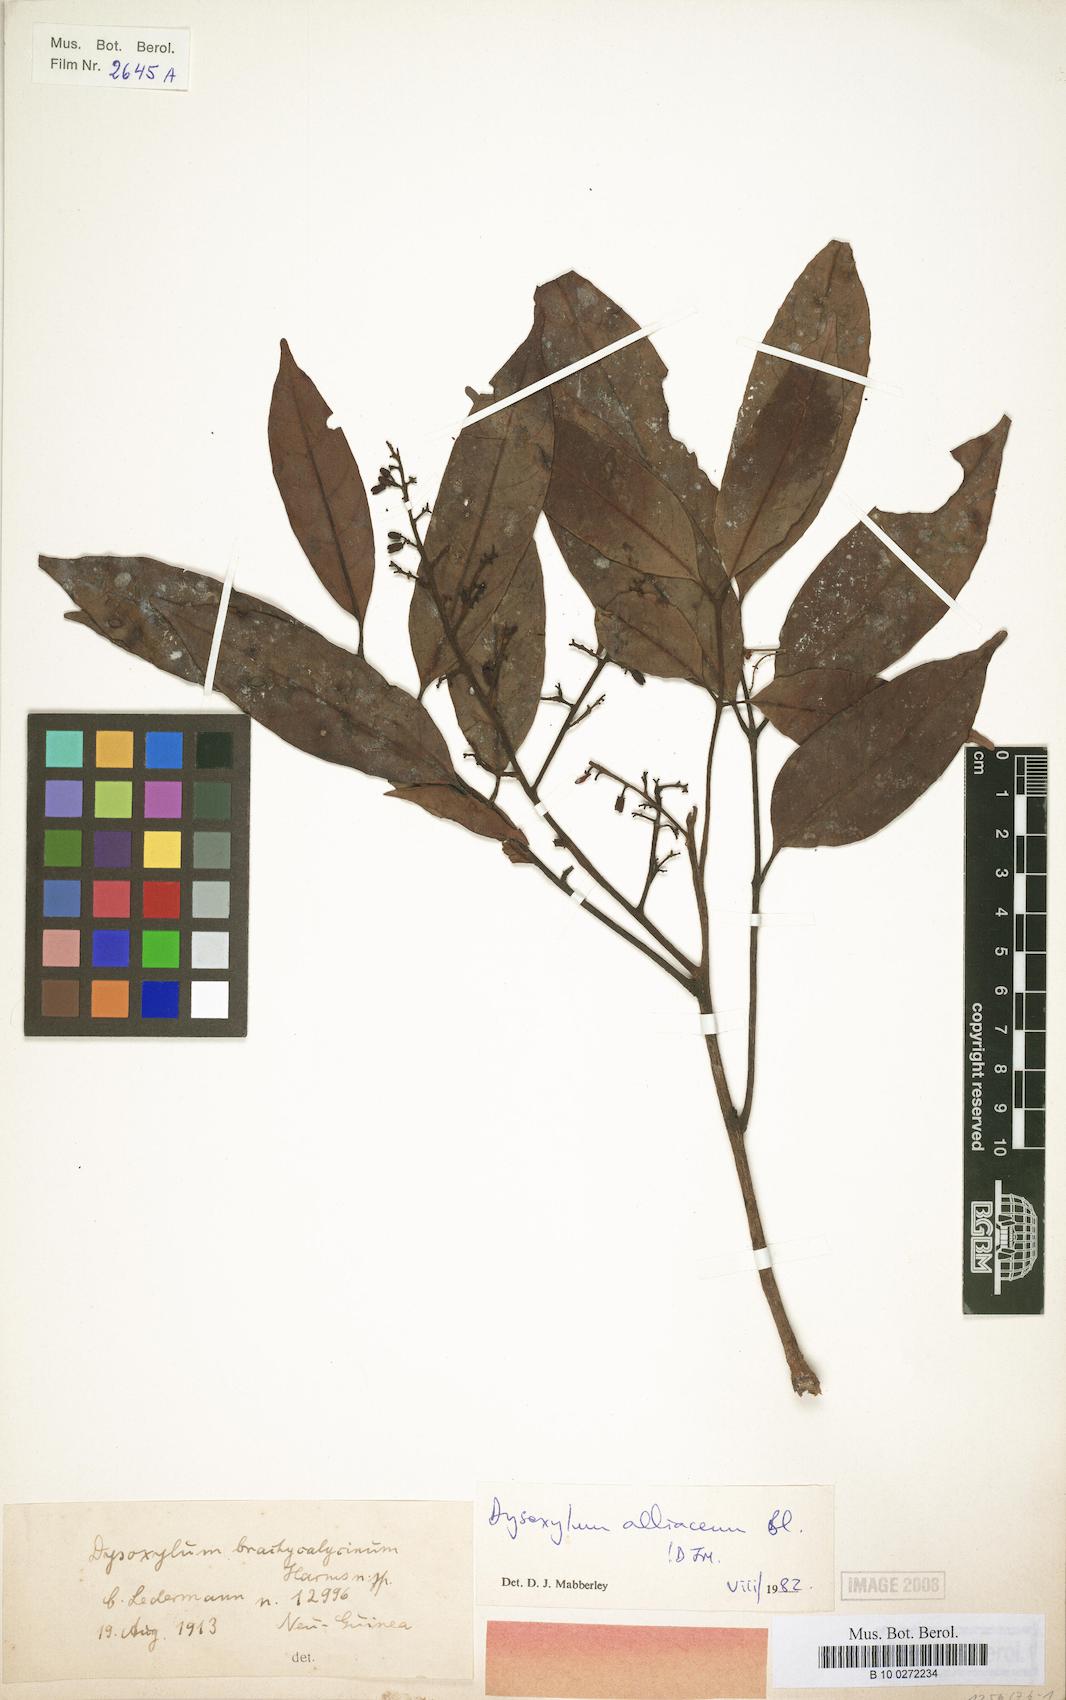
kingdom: Plantae
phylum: Tracheophyta
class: Magnoliopsida
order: Sapindales
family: Meliaceae
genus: Prasoxylon
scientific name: Prasoxylon alliaceum
